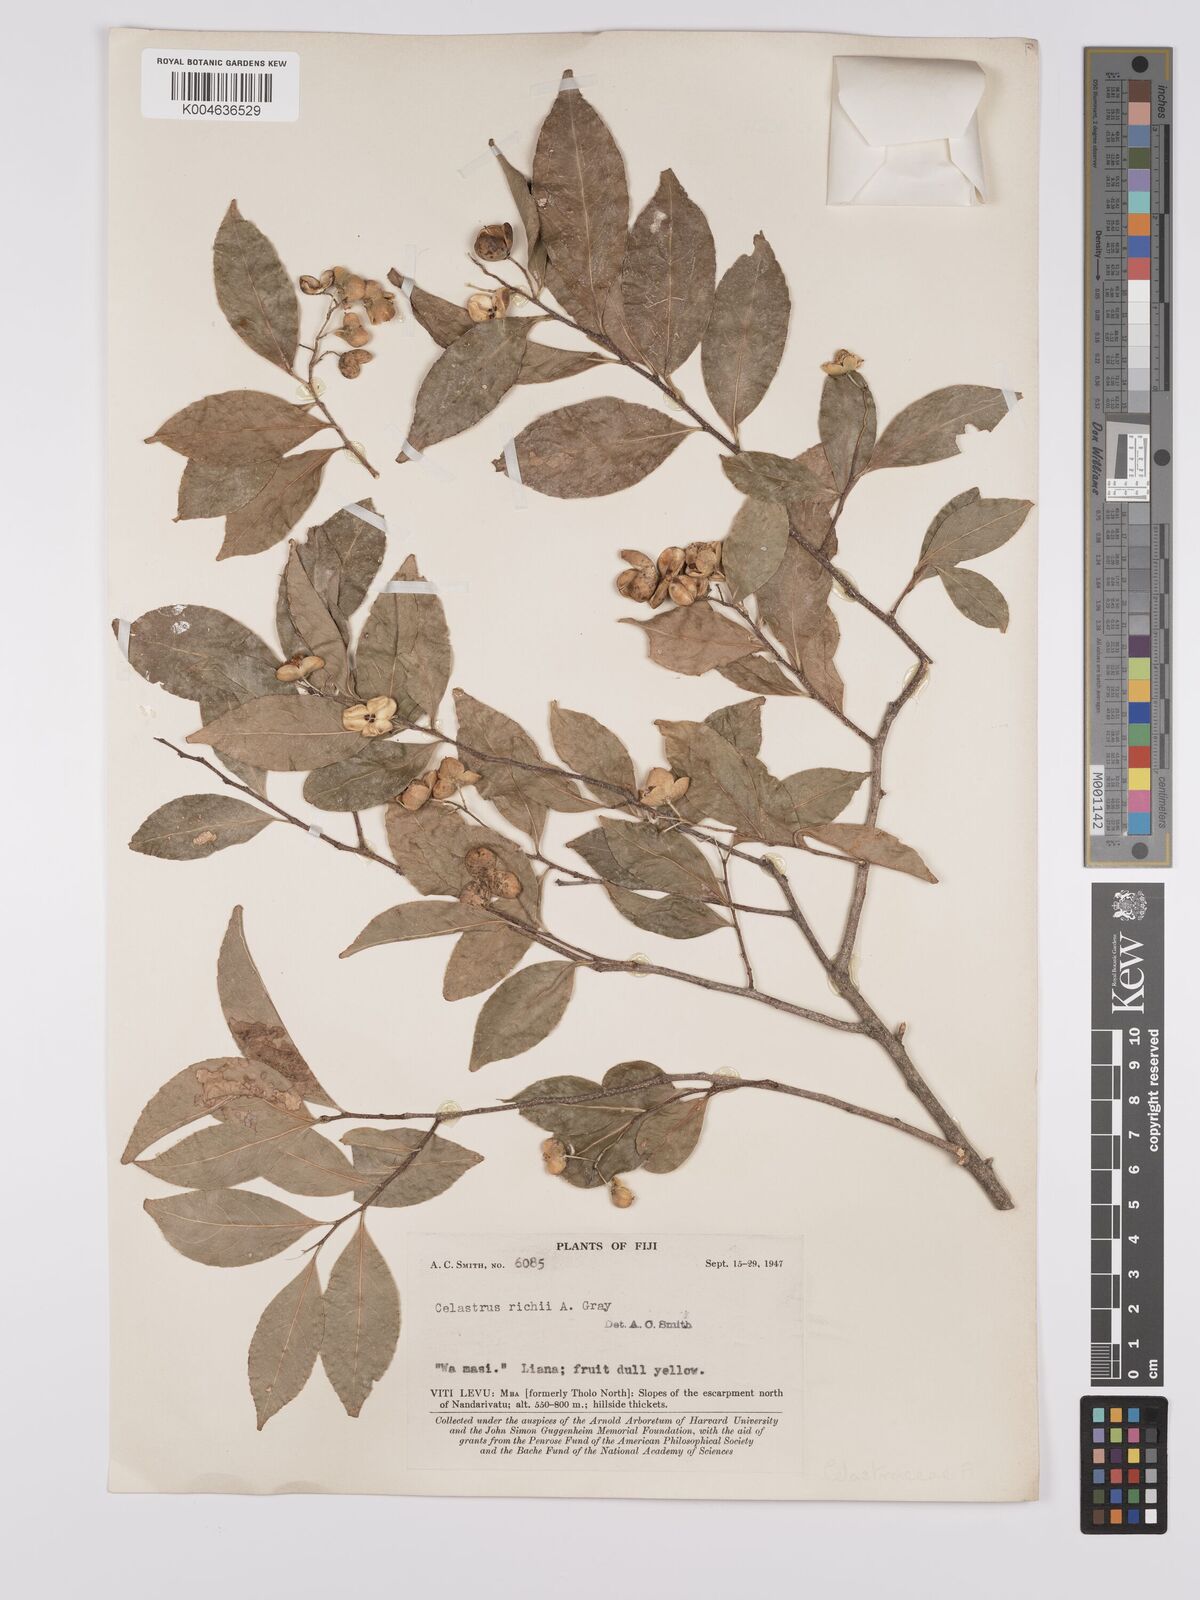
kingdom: Plantae
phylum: Tracheophyta
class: Magnoliopsida
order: Celastrales
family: Celastraceae
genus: Celastrus
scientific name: Celastrus richii
